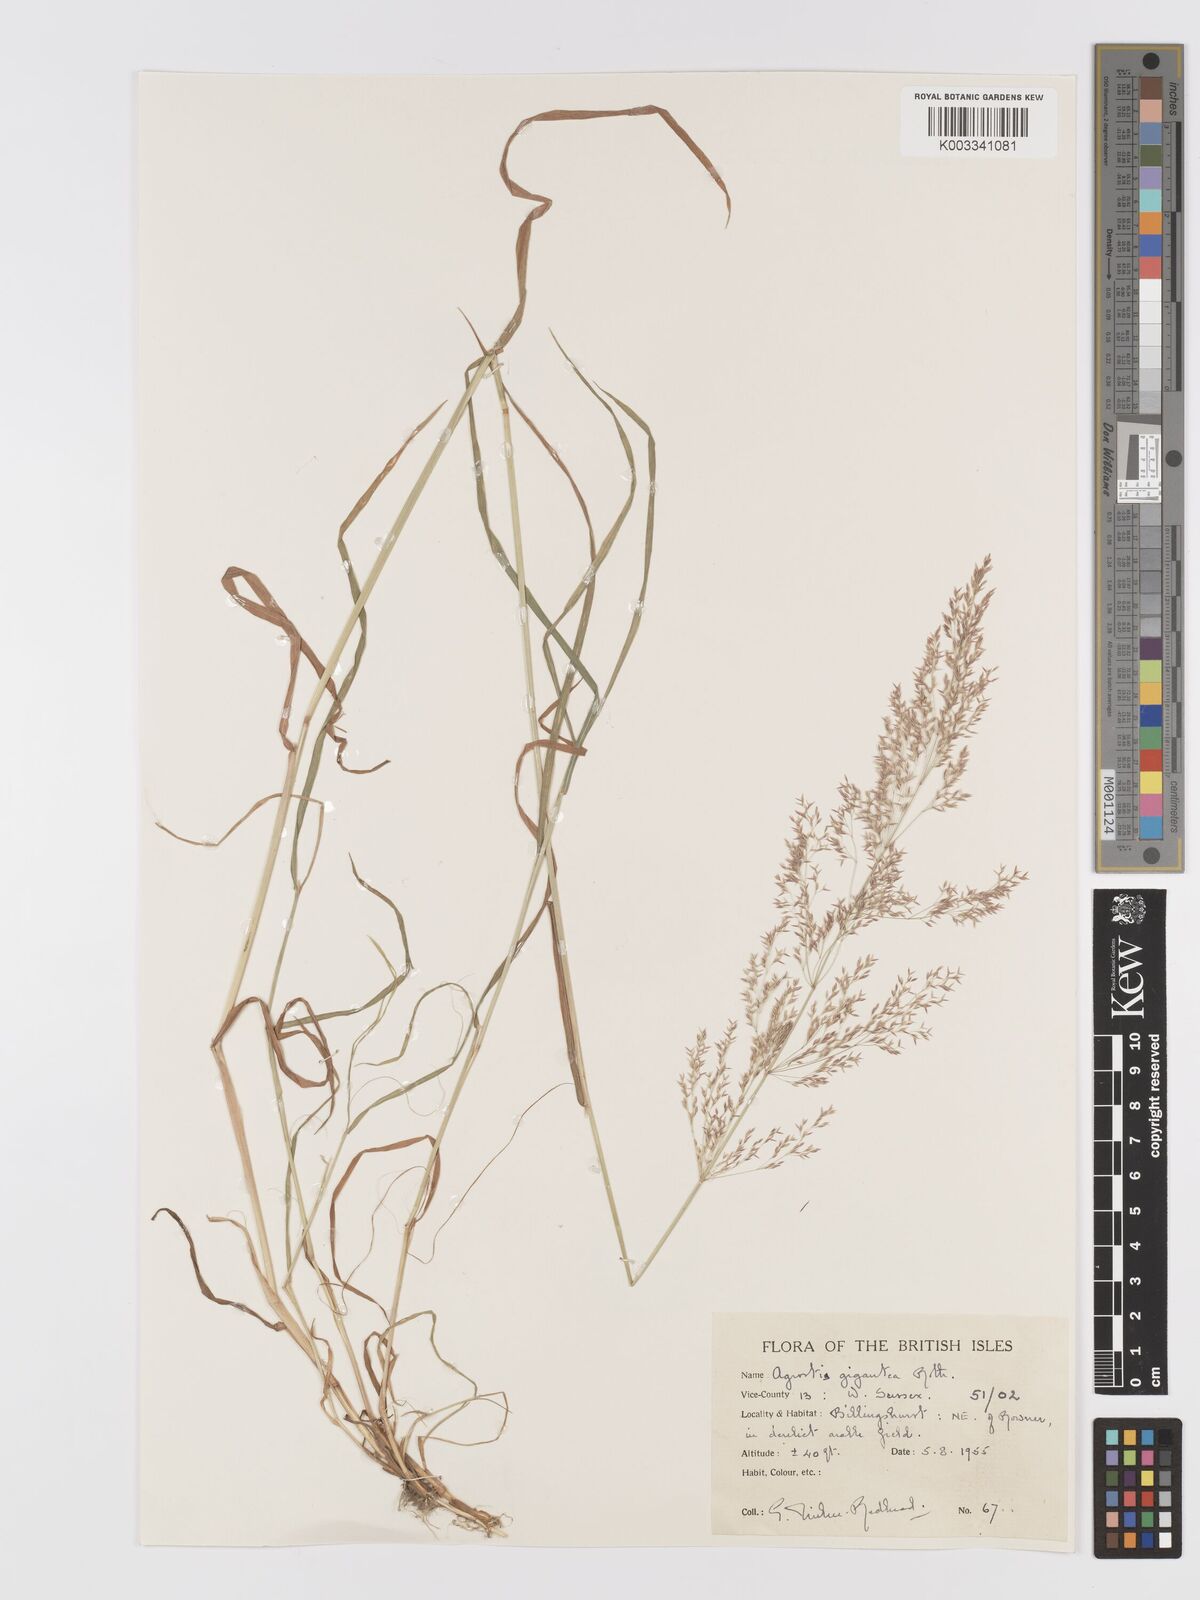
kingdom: Plantae
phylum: Tracheophyta
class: Liliopsida
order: Poales
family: Poaceae
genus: Agrostis
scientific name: Agrostis gigantea
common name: Black bent
